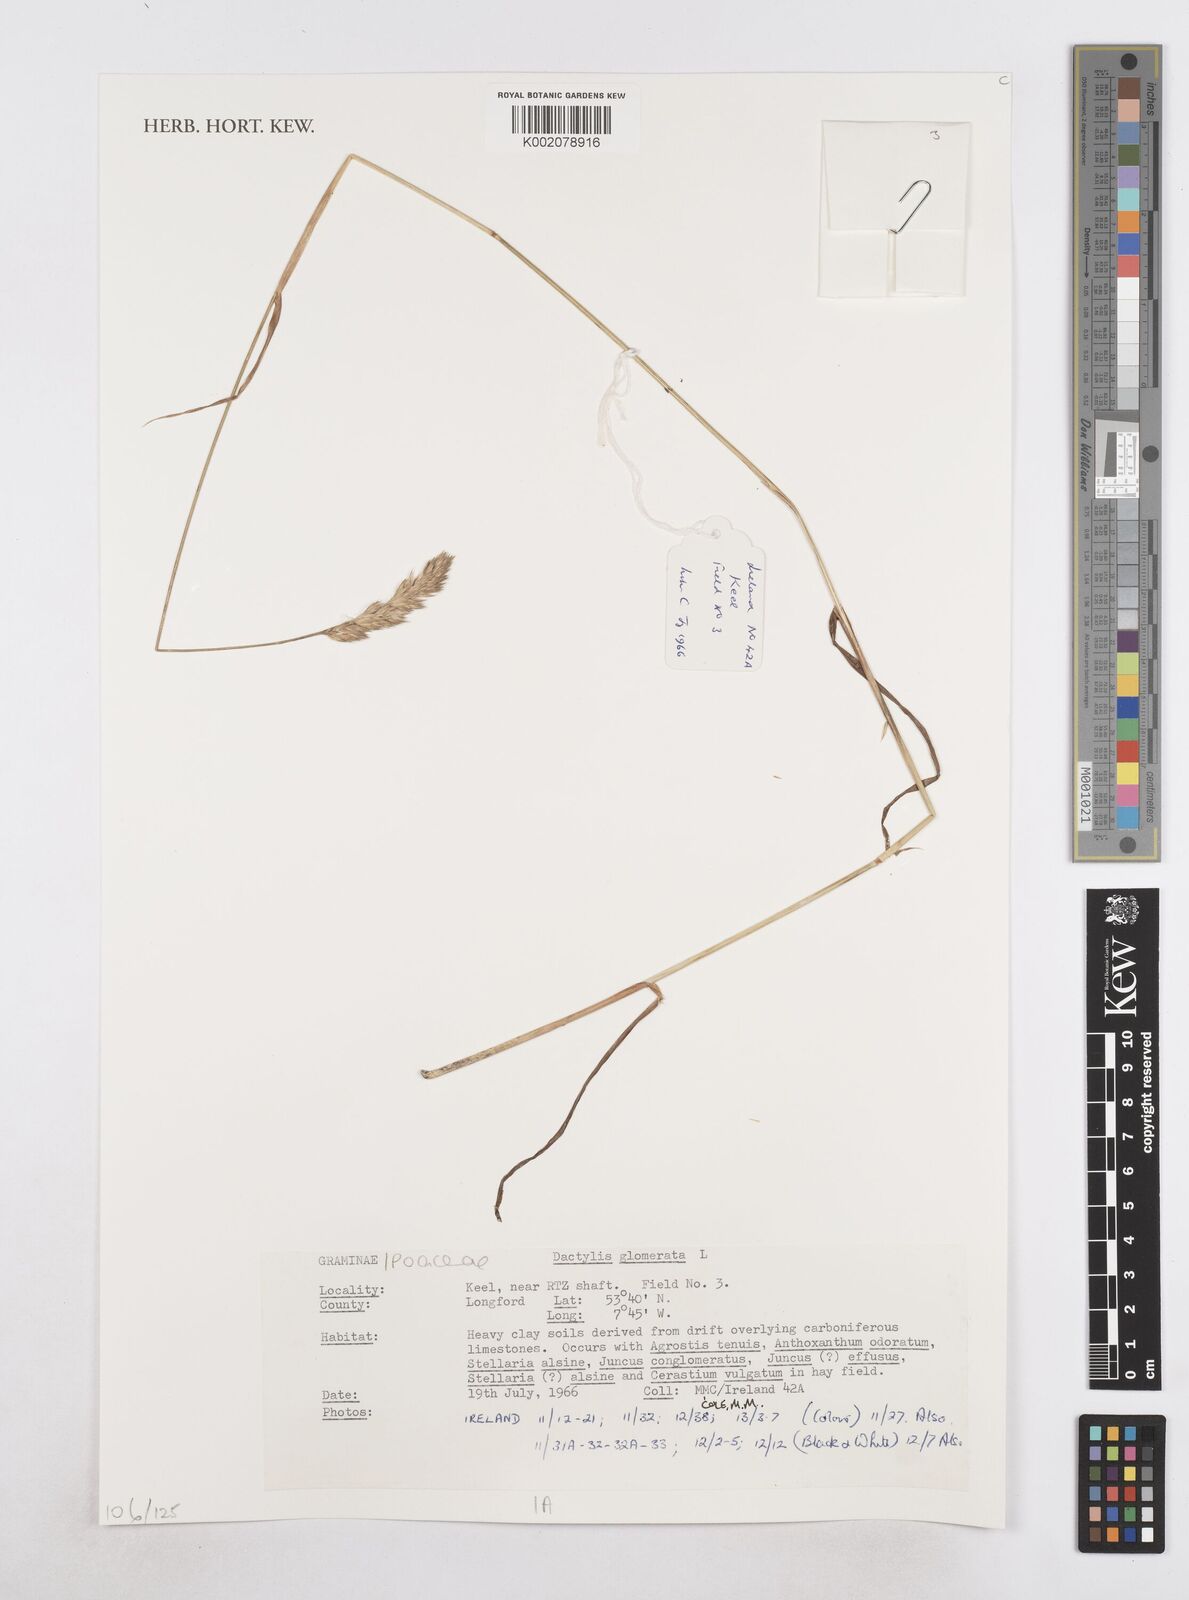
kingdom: Plantae
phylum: Tracheophyta
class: Liliopsida
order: Poales
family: Poaceae
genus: Dactylis
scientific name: Dactylis glomerata
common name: Orchardgrass
